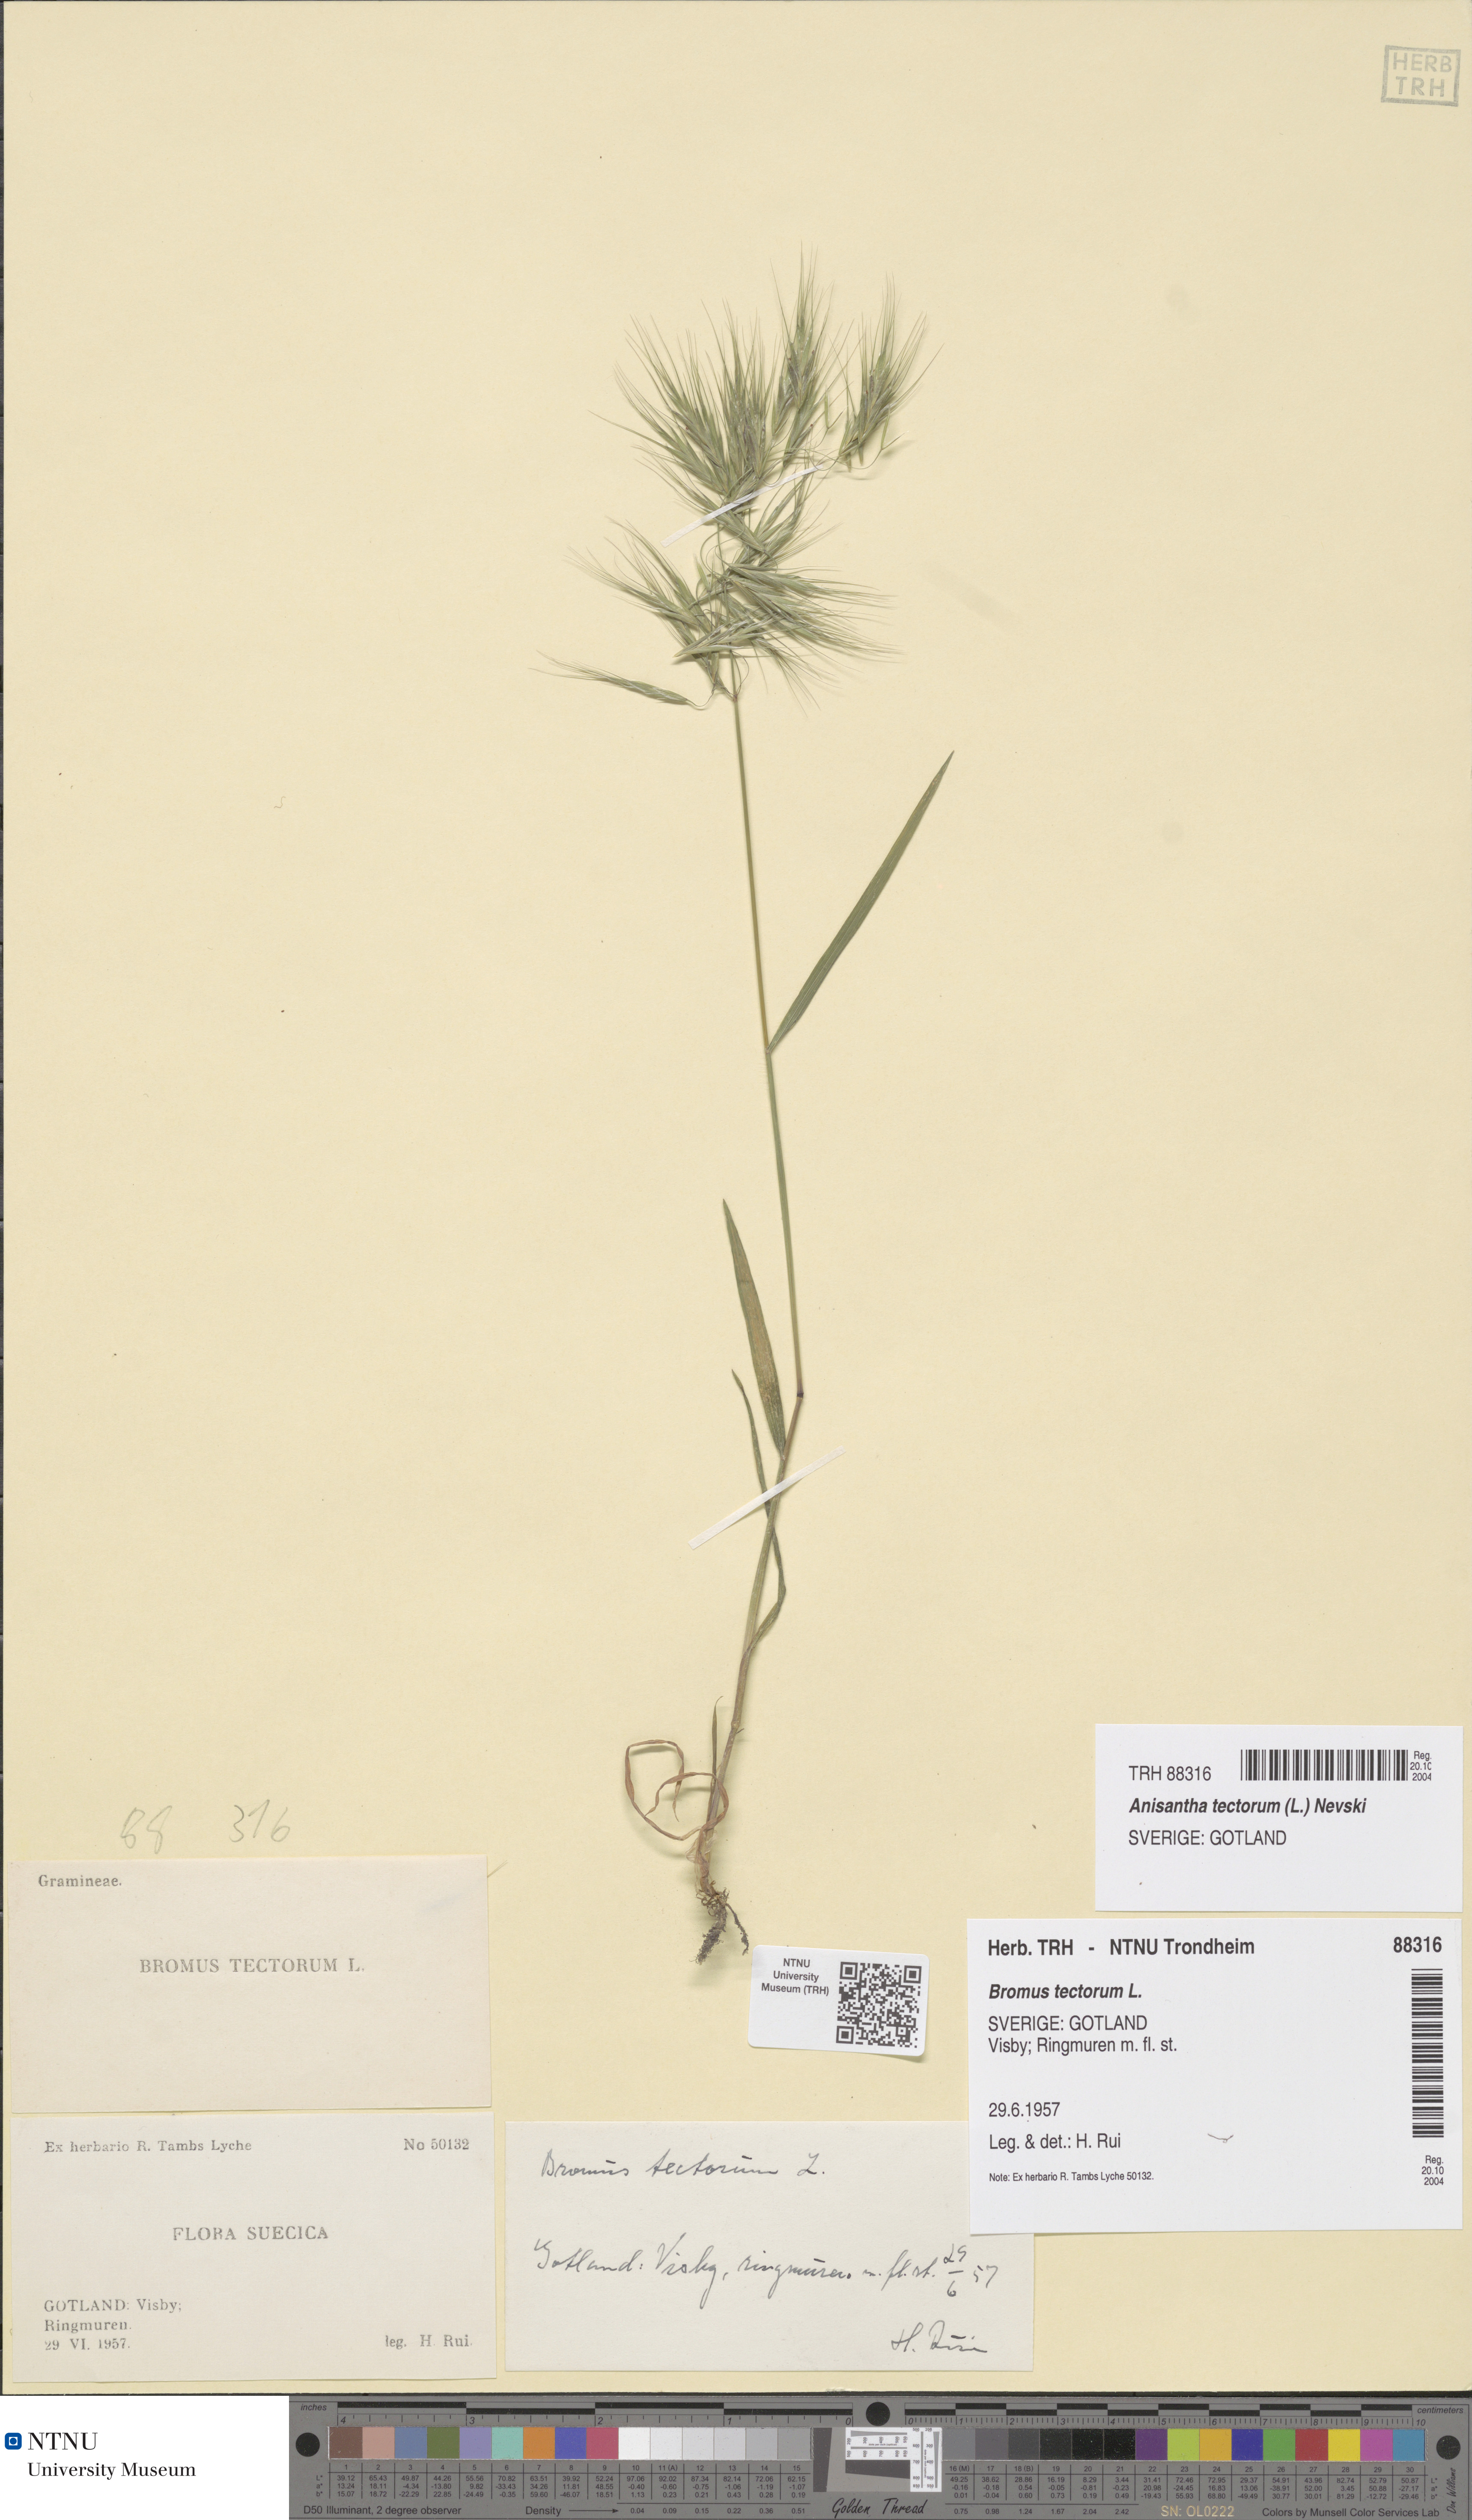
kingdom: Plantae
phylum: Tracheophyta
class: Liliopsida
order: Poales
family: Poaceae
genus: Bromus
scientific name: Bromus tectorum
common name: Cheatgrass
